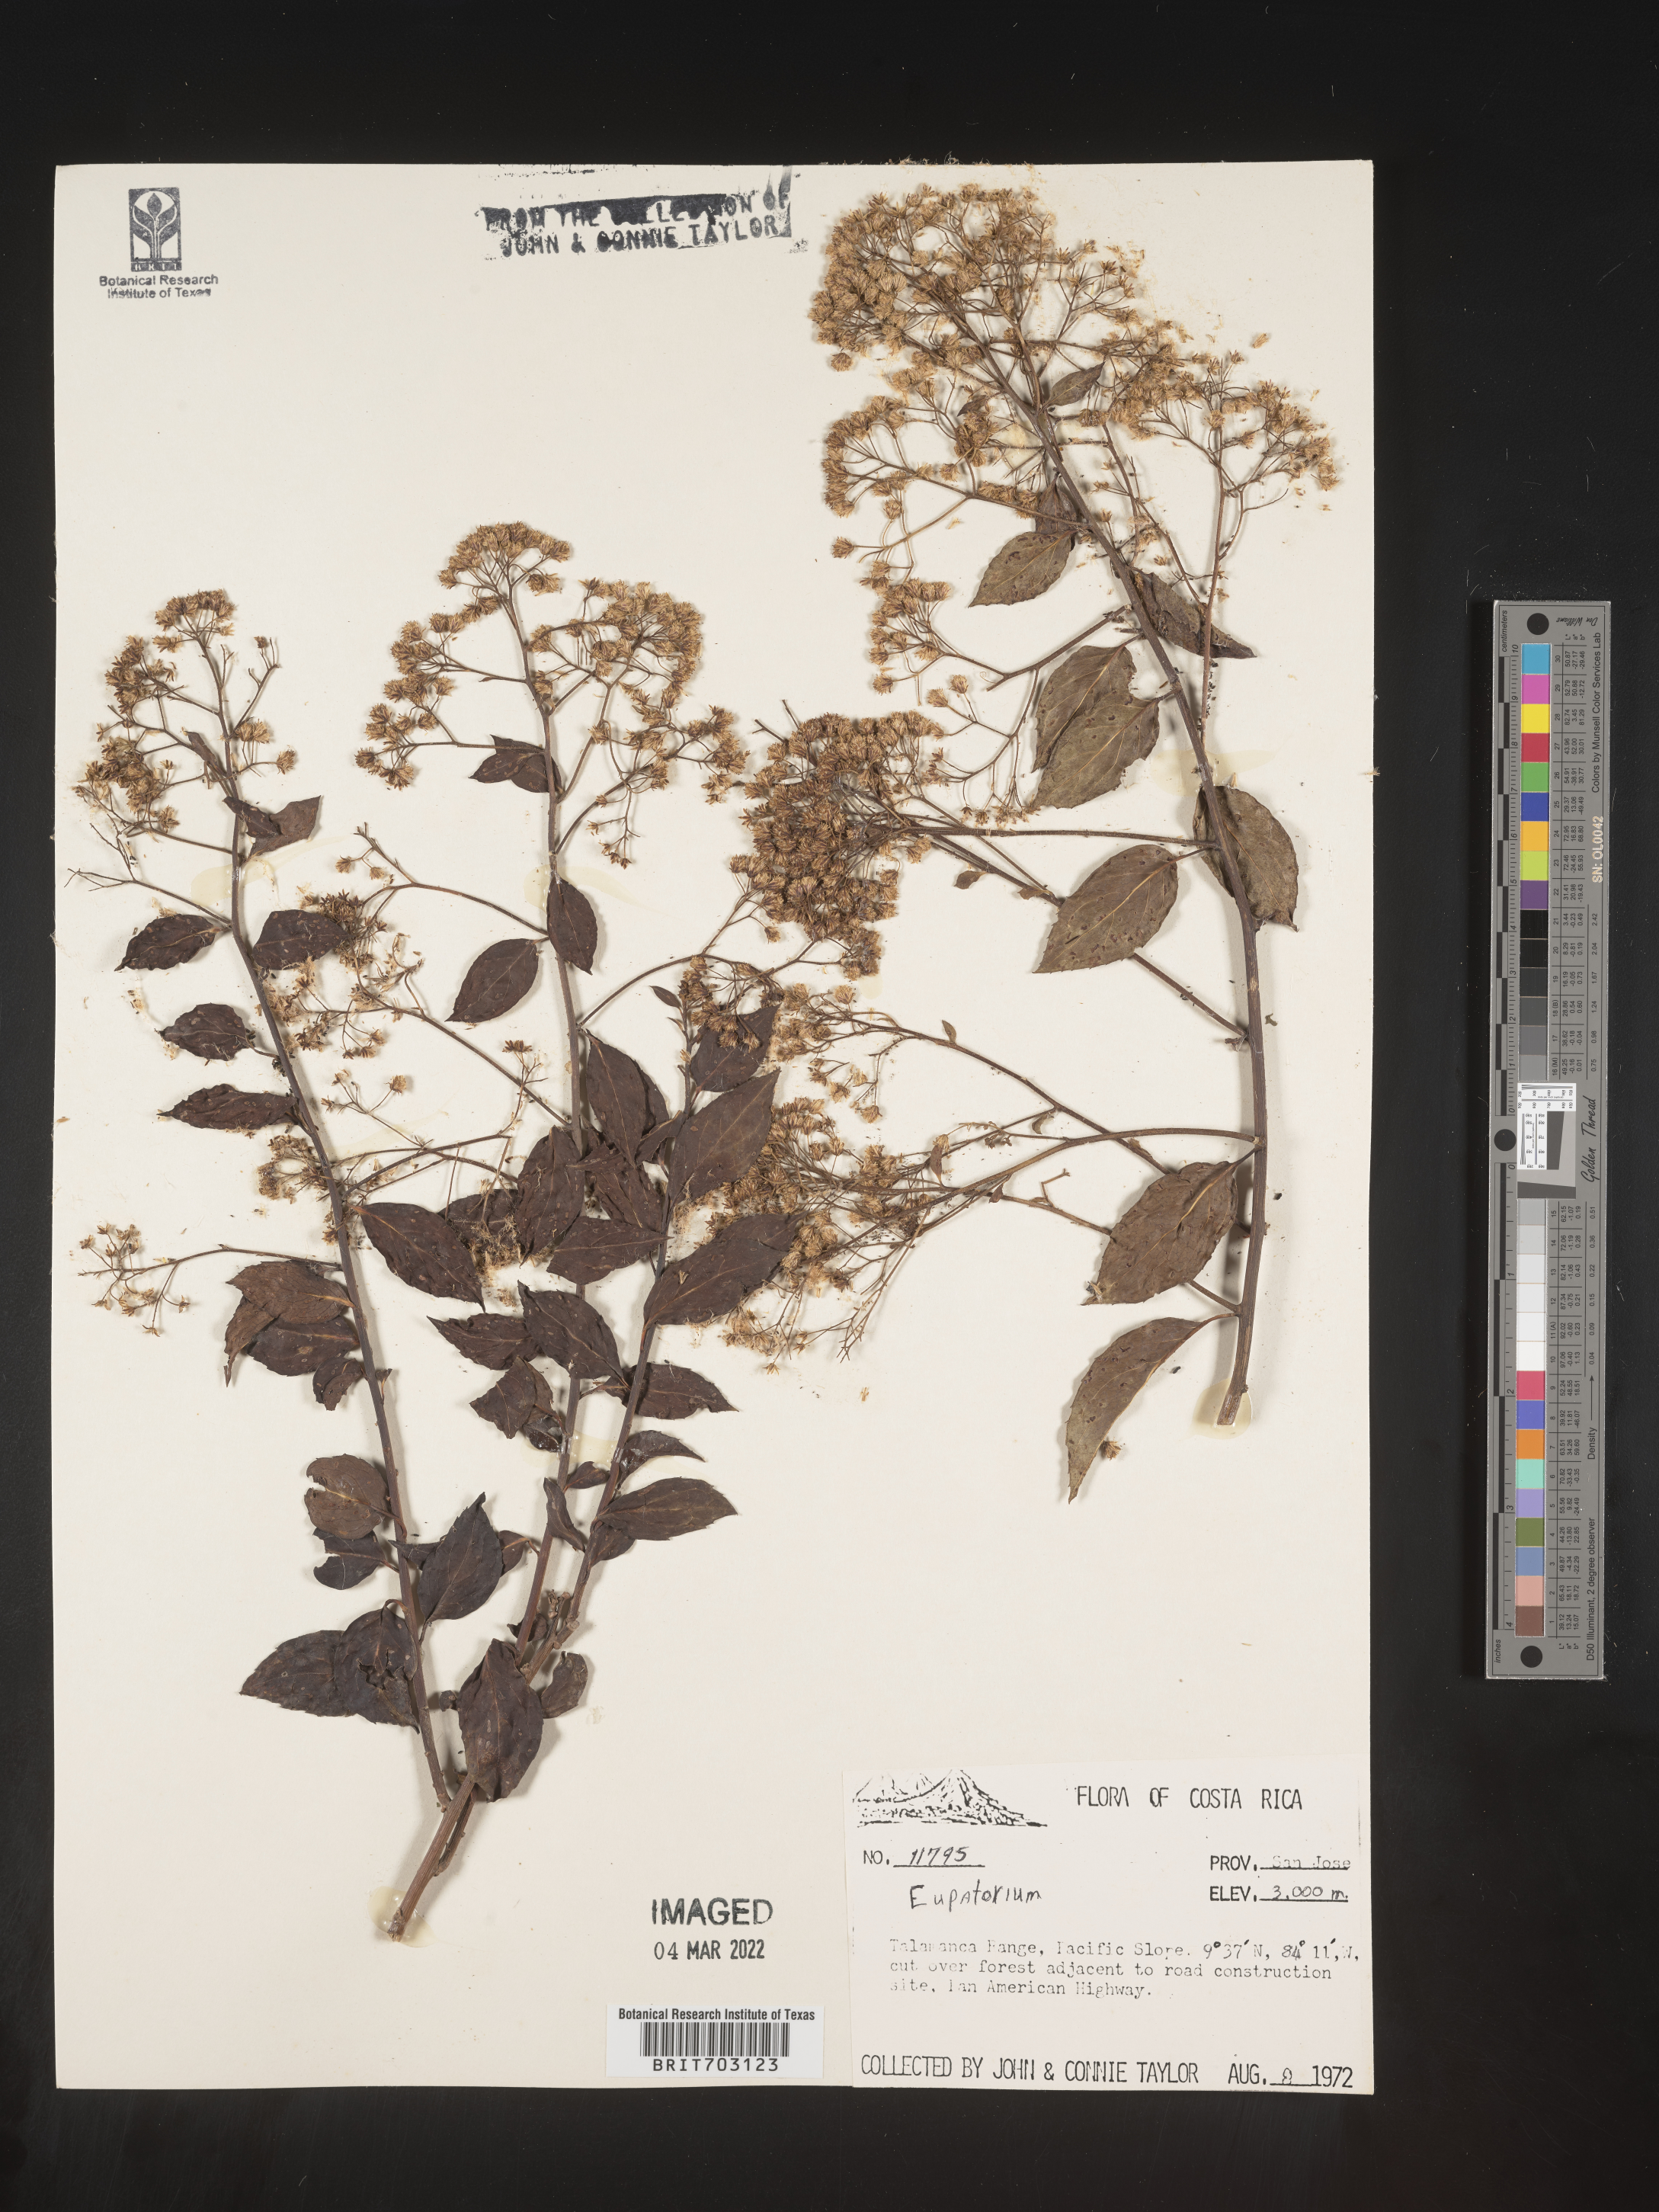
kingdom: Plantae
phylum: Tracheophyta
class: Magnoliopsida
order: Asterales
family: Asteraceae
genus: Eupatorium
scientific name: Eupatorium
